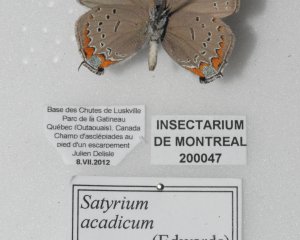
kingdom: Animalia
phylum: Arthropoda
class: Insecta
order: Lepidoptera
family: Lycaenidae
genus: Strymon
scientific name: Strymon acadica
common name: Acadian Hairstreak
